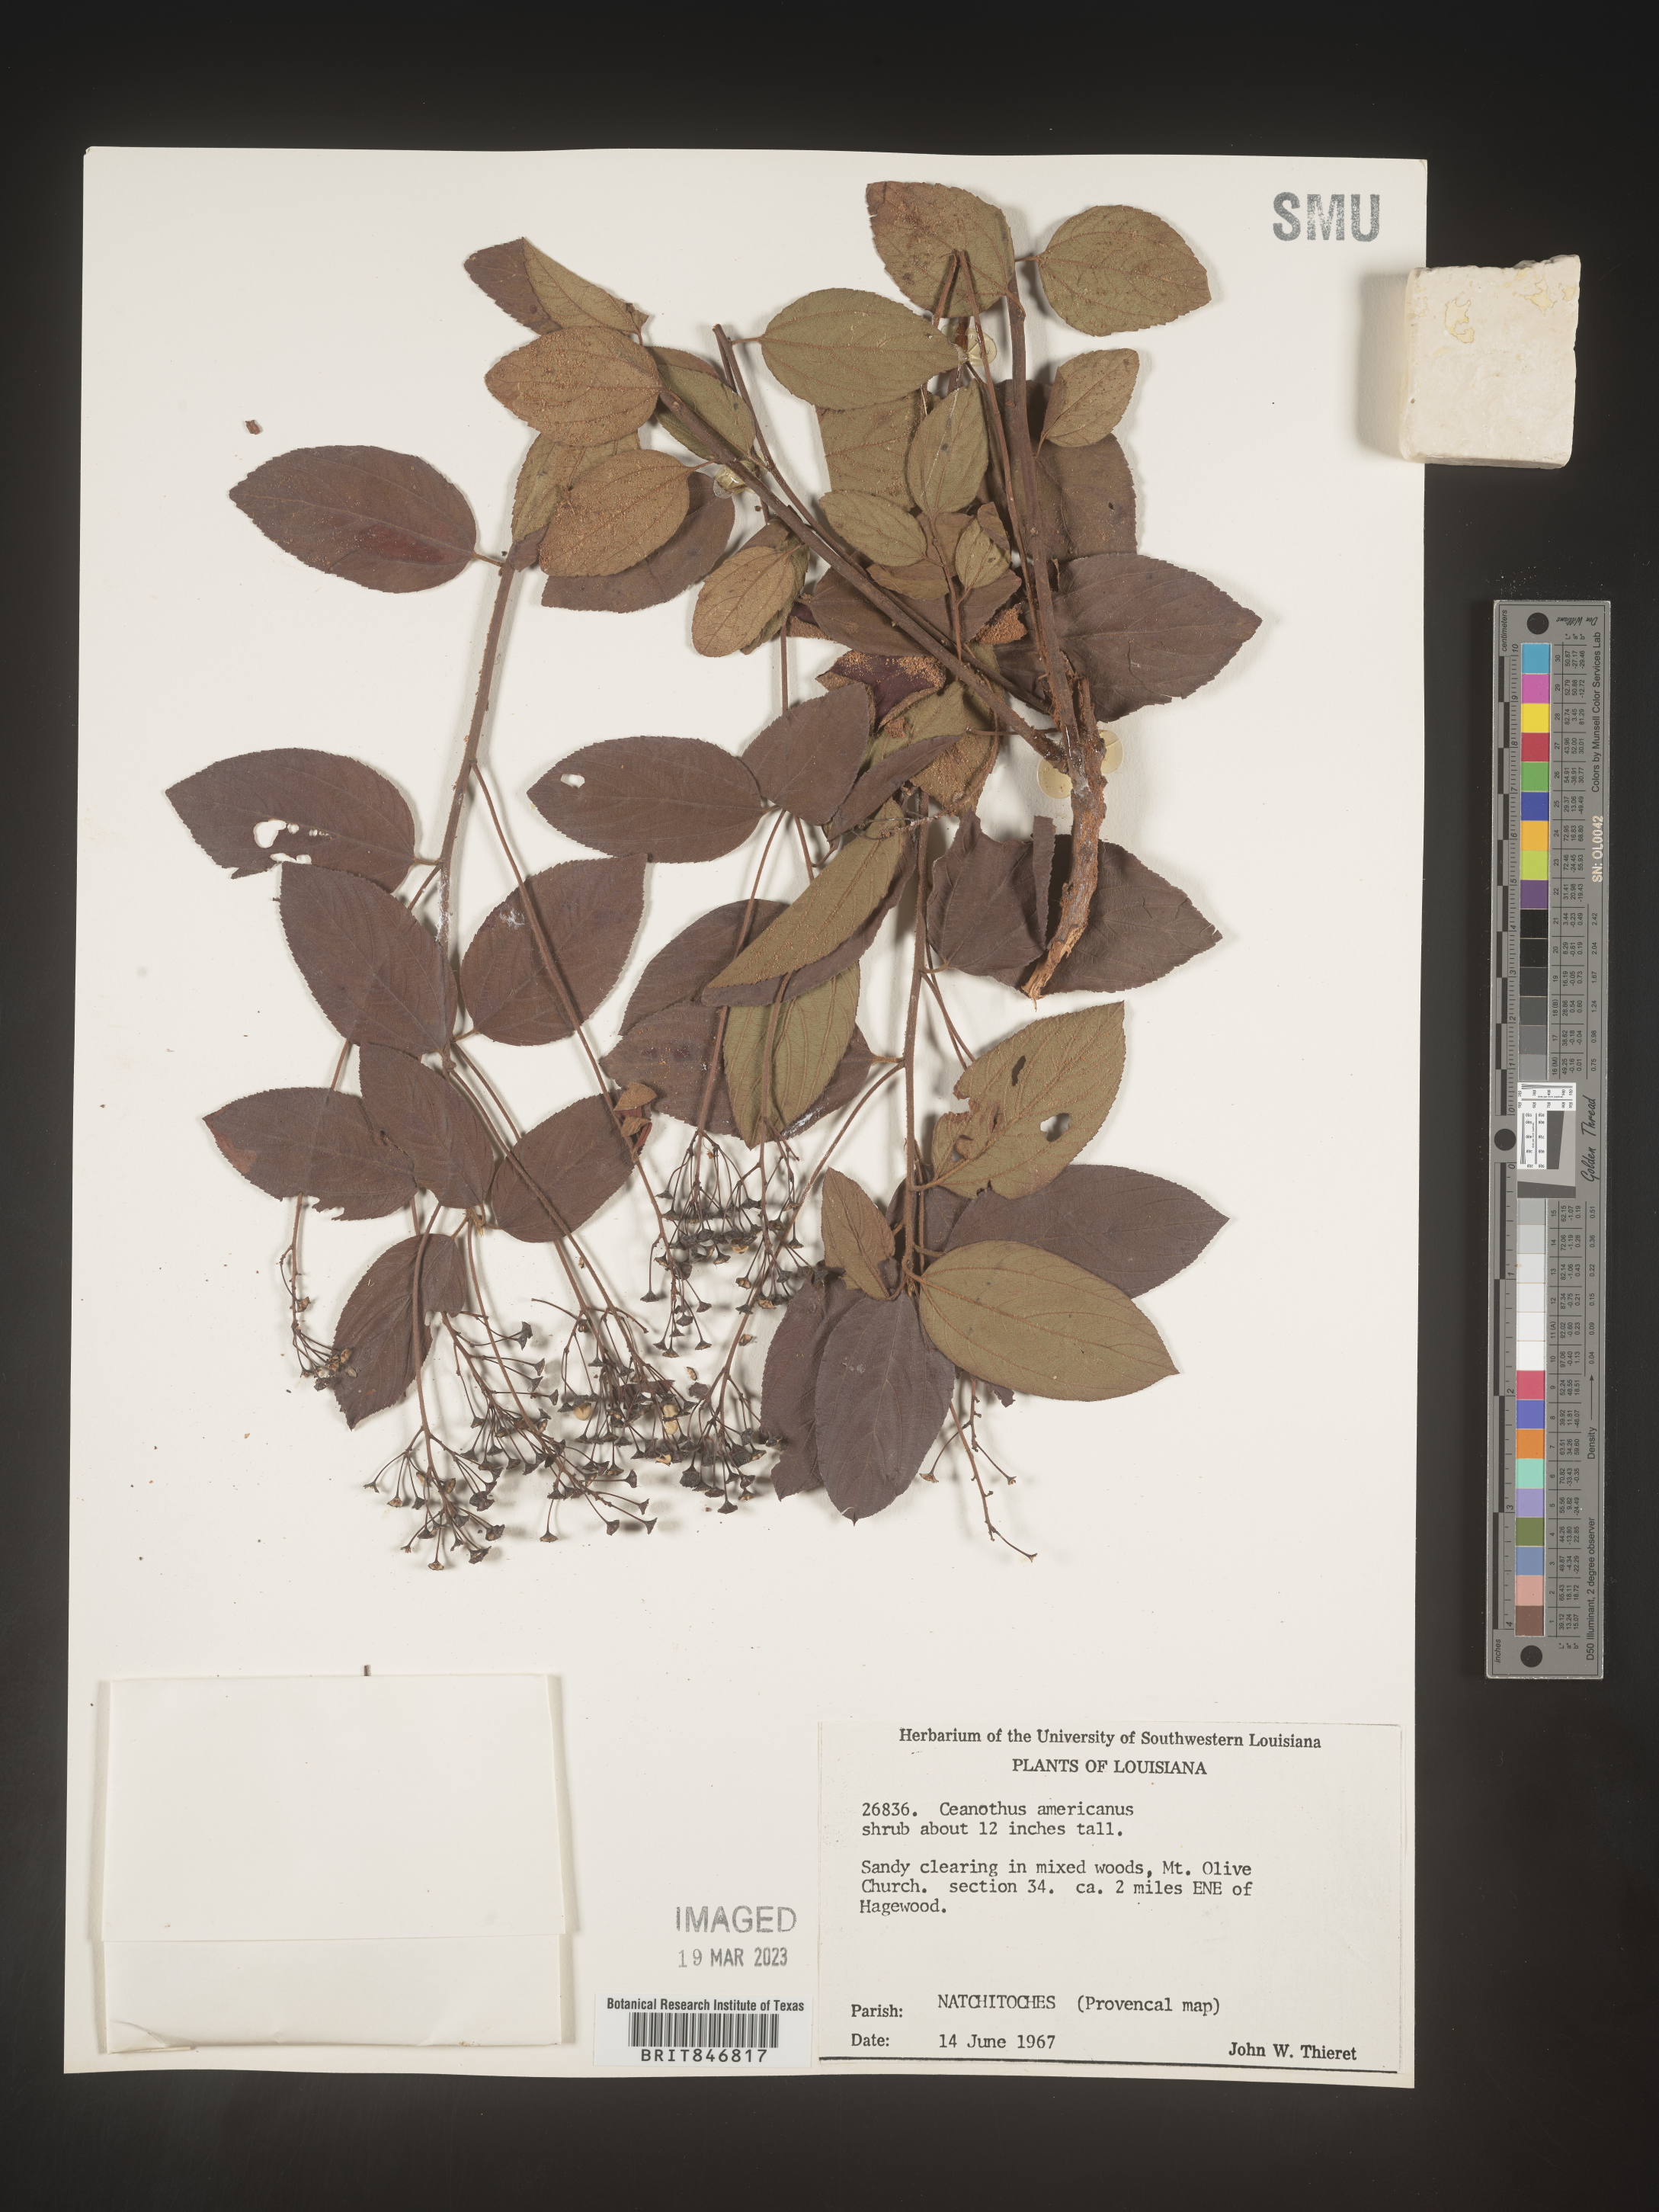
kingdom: Plantae
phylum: Tracheophyta
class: Magnoliopsida
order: Rosales
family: Rhamnaceae
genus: Ceanothus
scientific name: Ceanothus americanus
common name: Redroot
